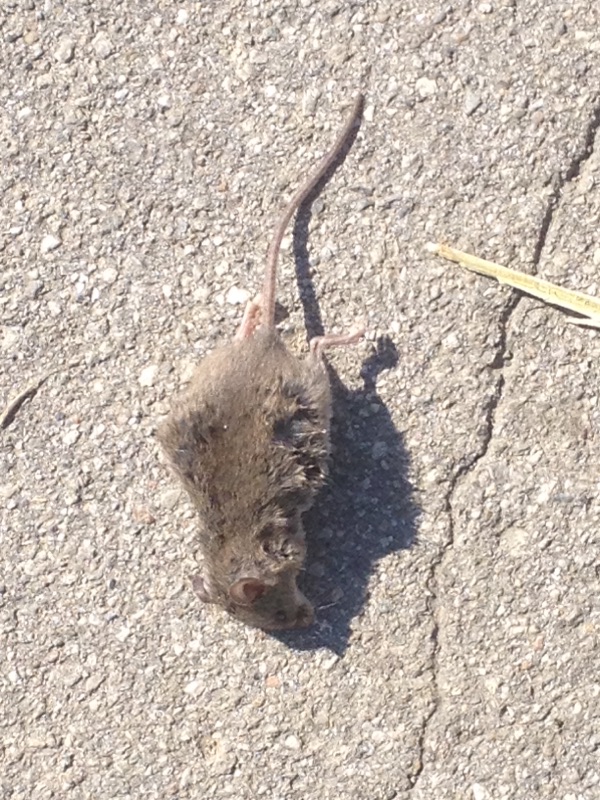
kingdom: Animalia
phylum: Chordata
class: Mammalia
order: Rodentia
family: Muridae
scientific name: Muridae
